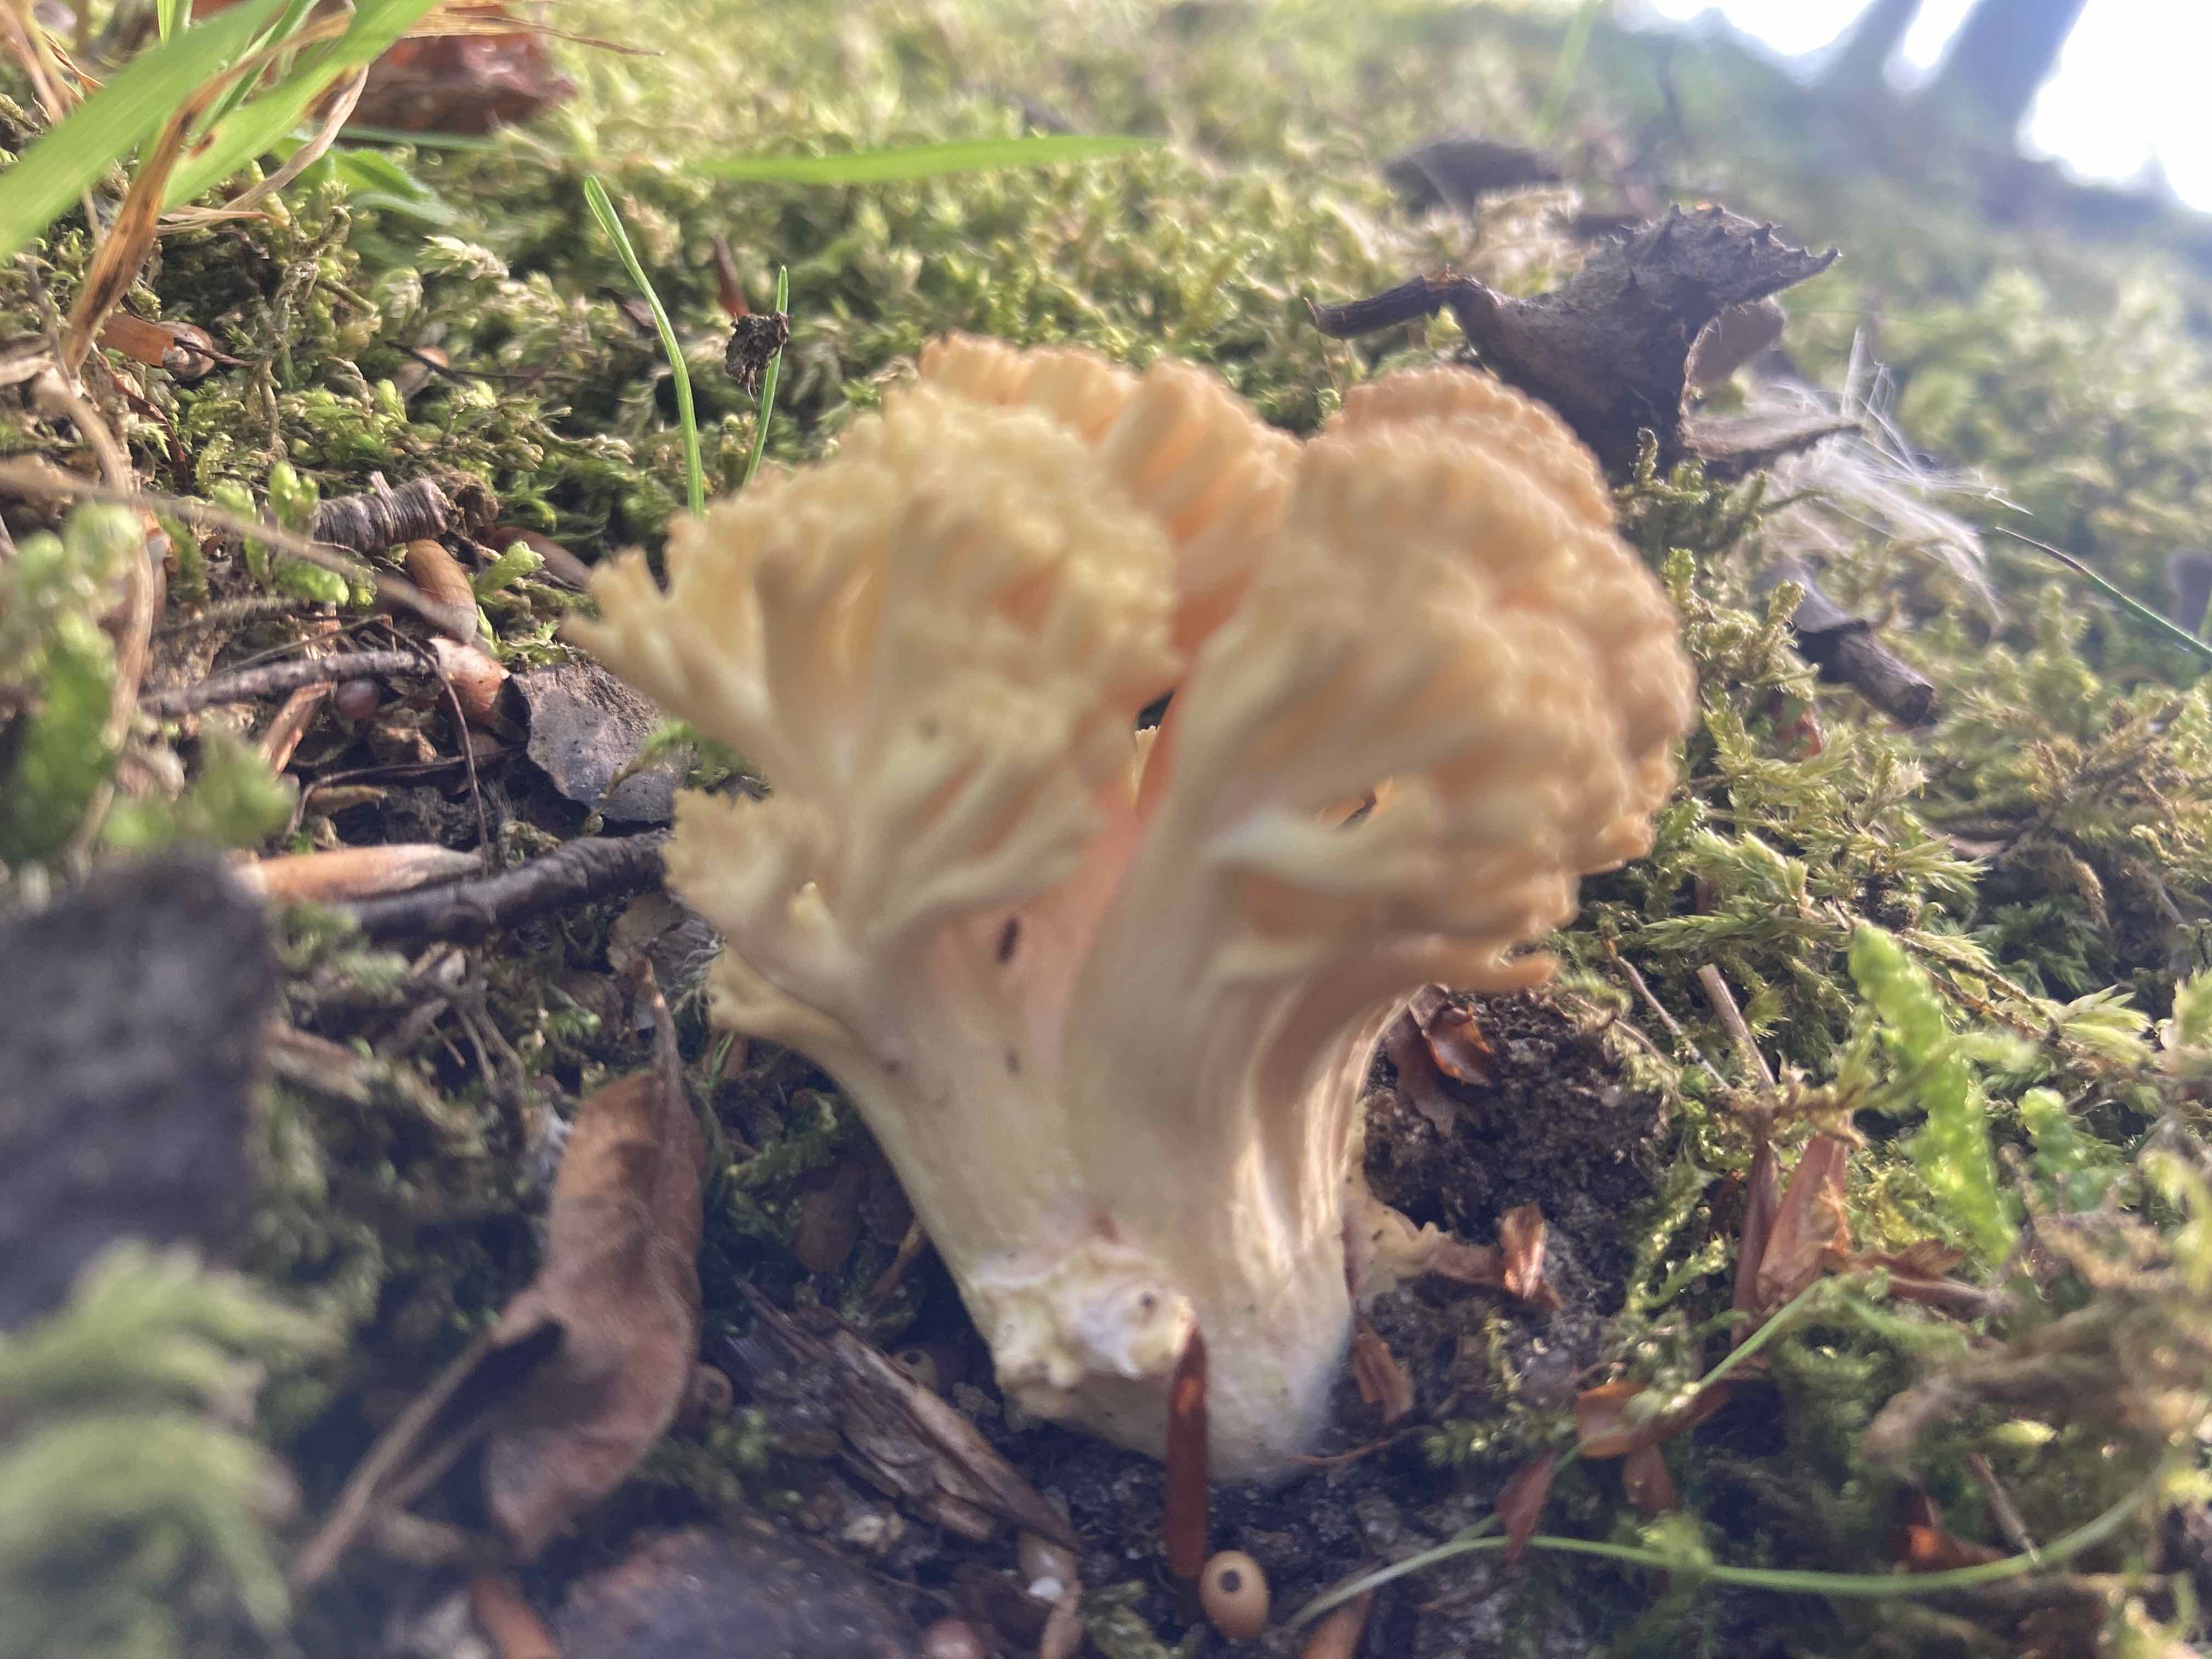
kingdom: Fungi
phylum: Basidiomycota
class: Agaricomycetes
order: Gomphales
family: Gomphaceae
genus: Ramaria
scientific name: Ramaria
